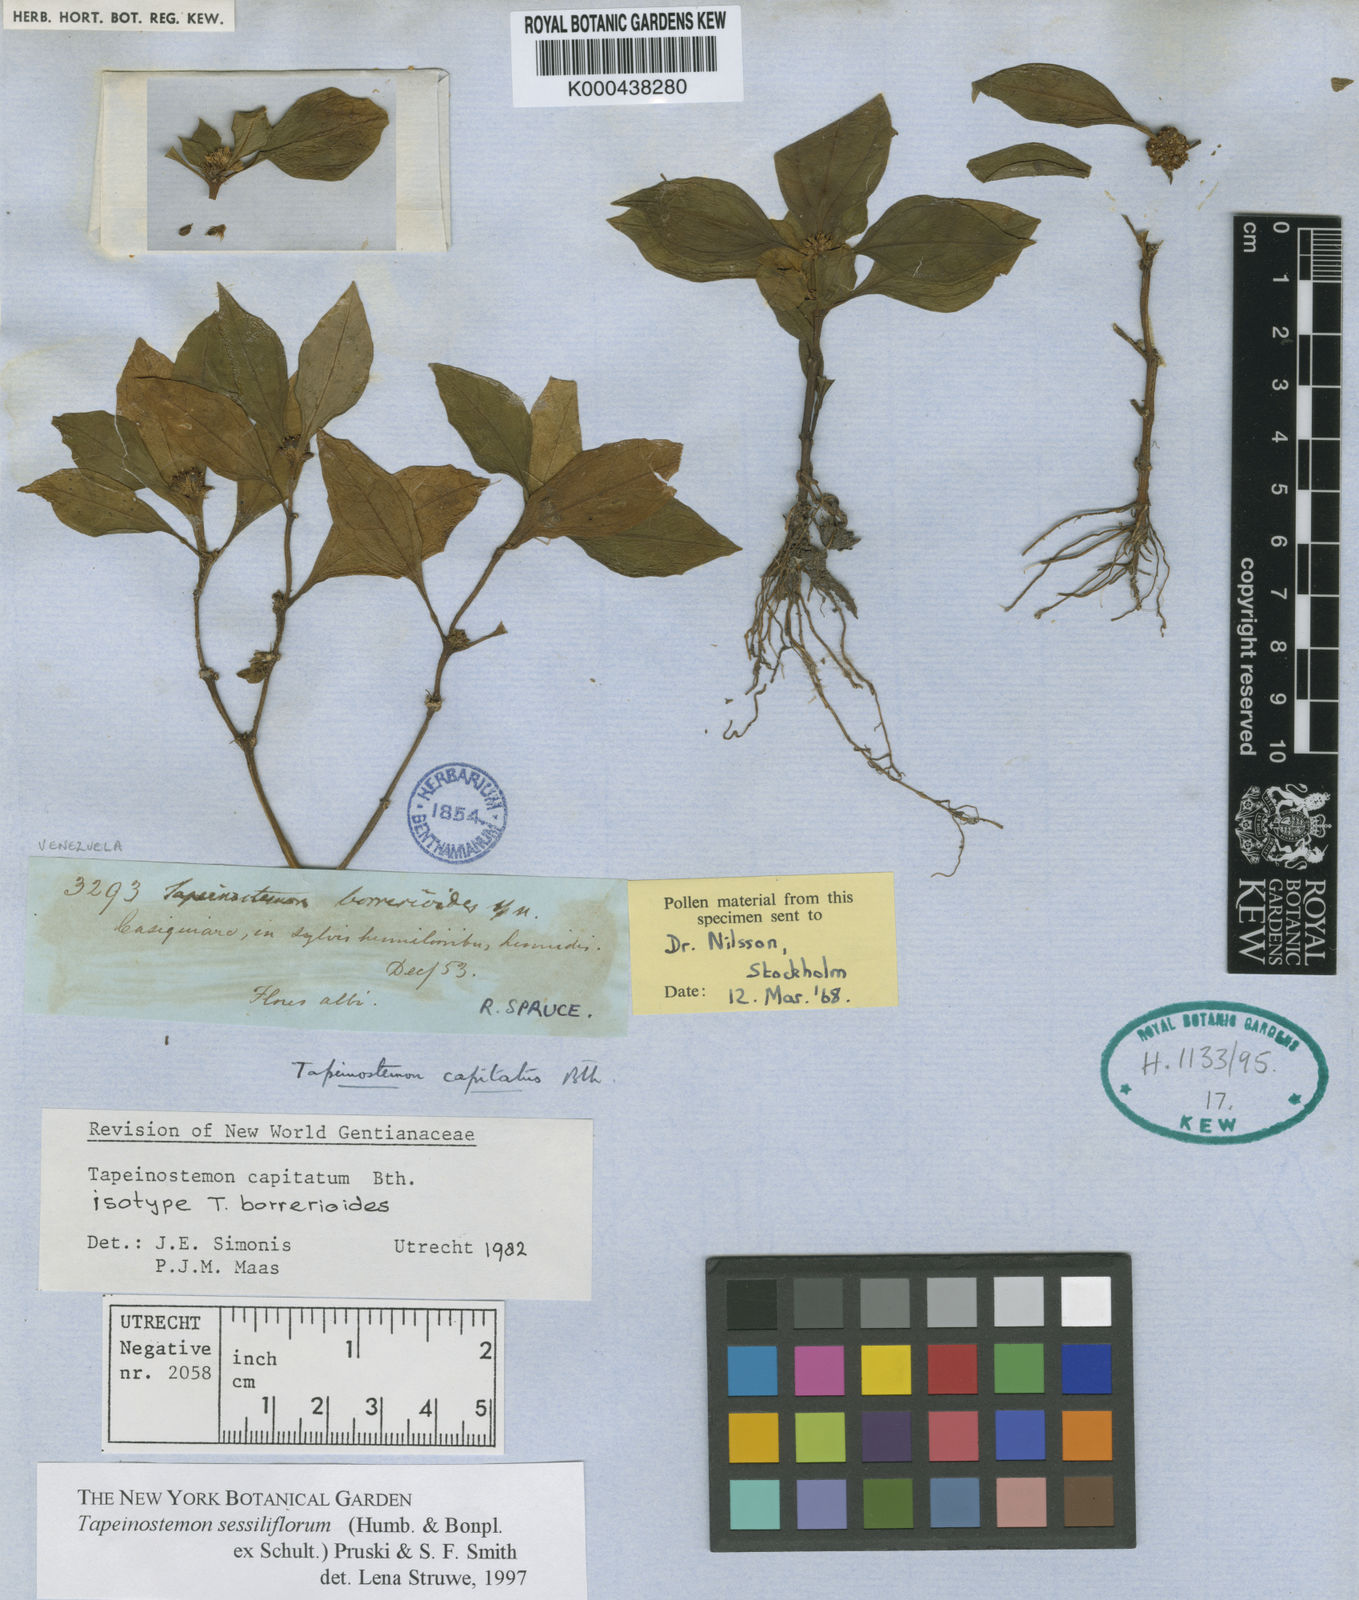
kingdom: Plantae
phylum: Tracheophyta
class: Magnoliopsida
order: Gentianales
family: Gentianaceae
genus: Tapeinostemon
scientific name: Tapeinostemon sessiliflorus
